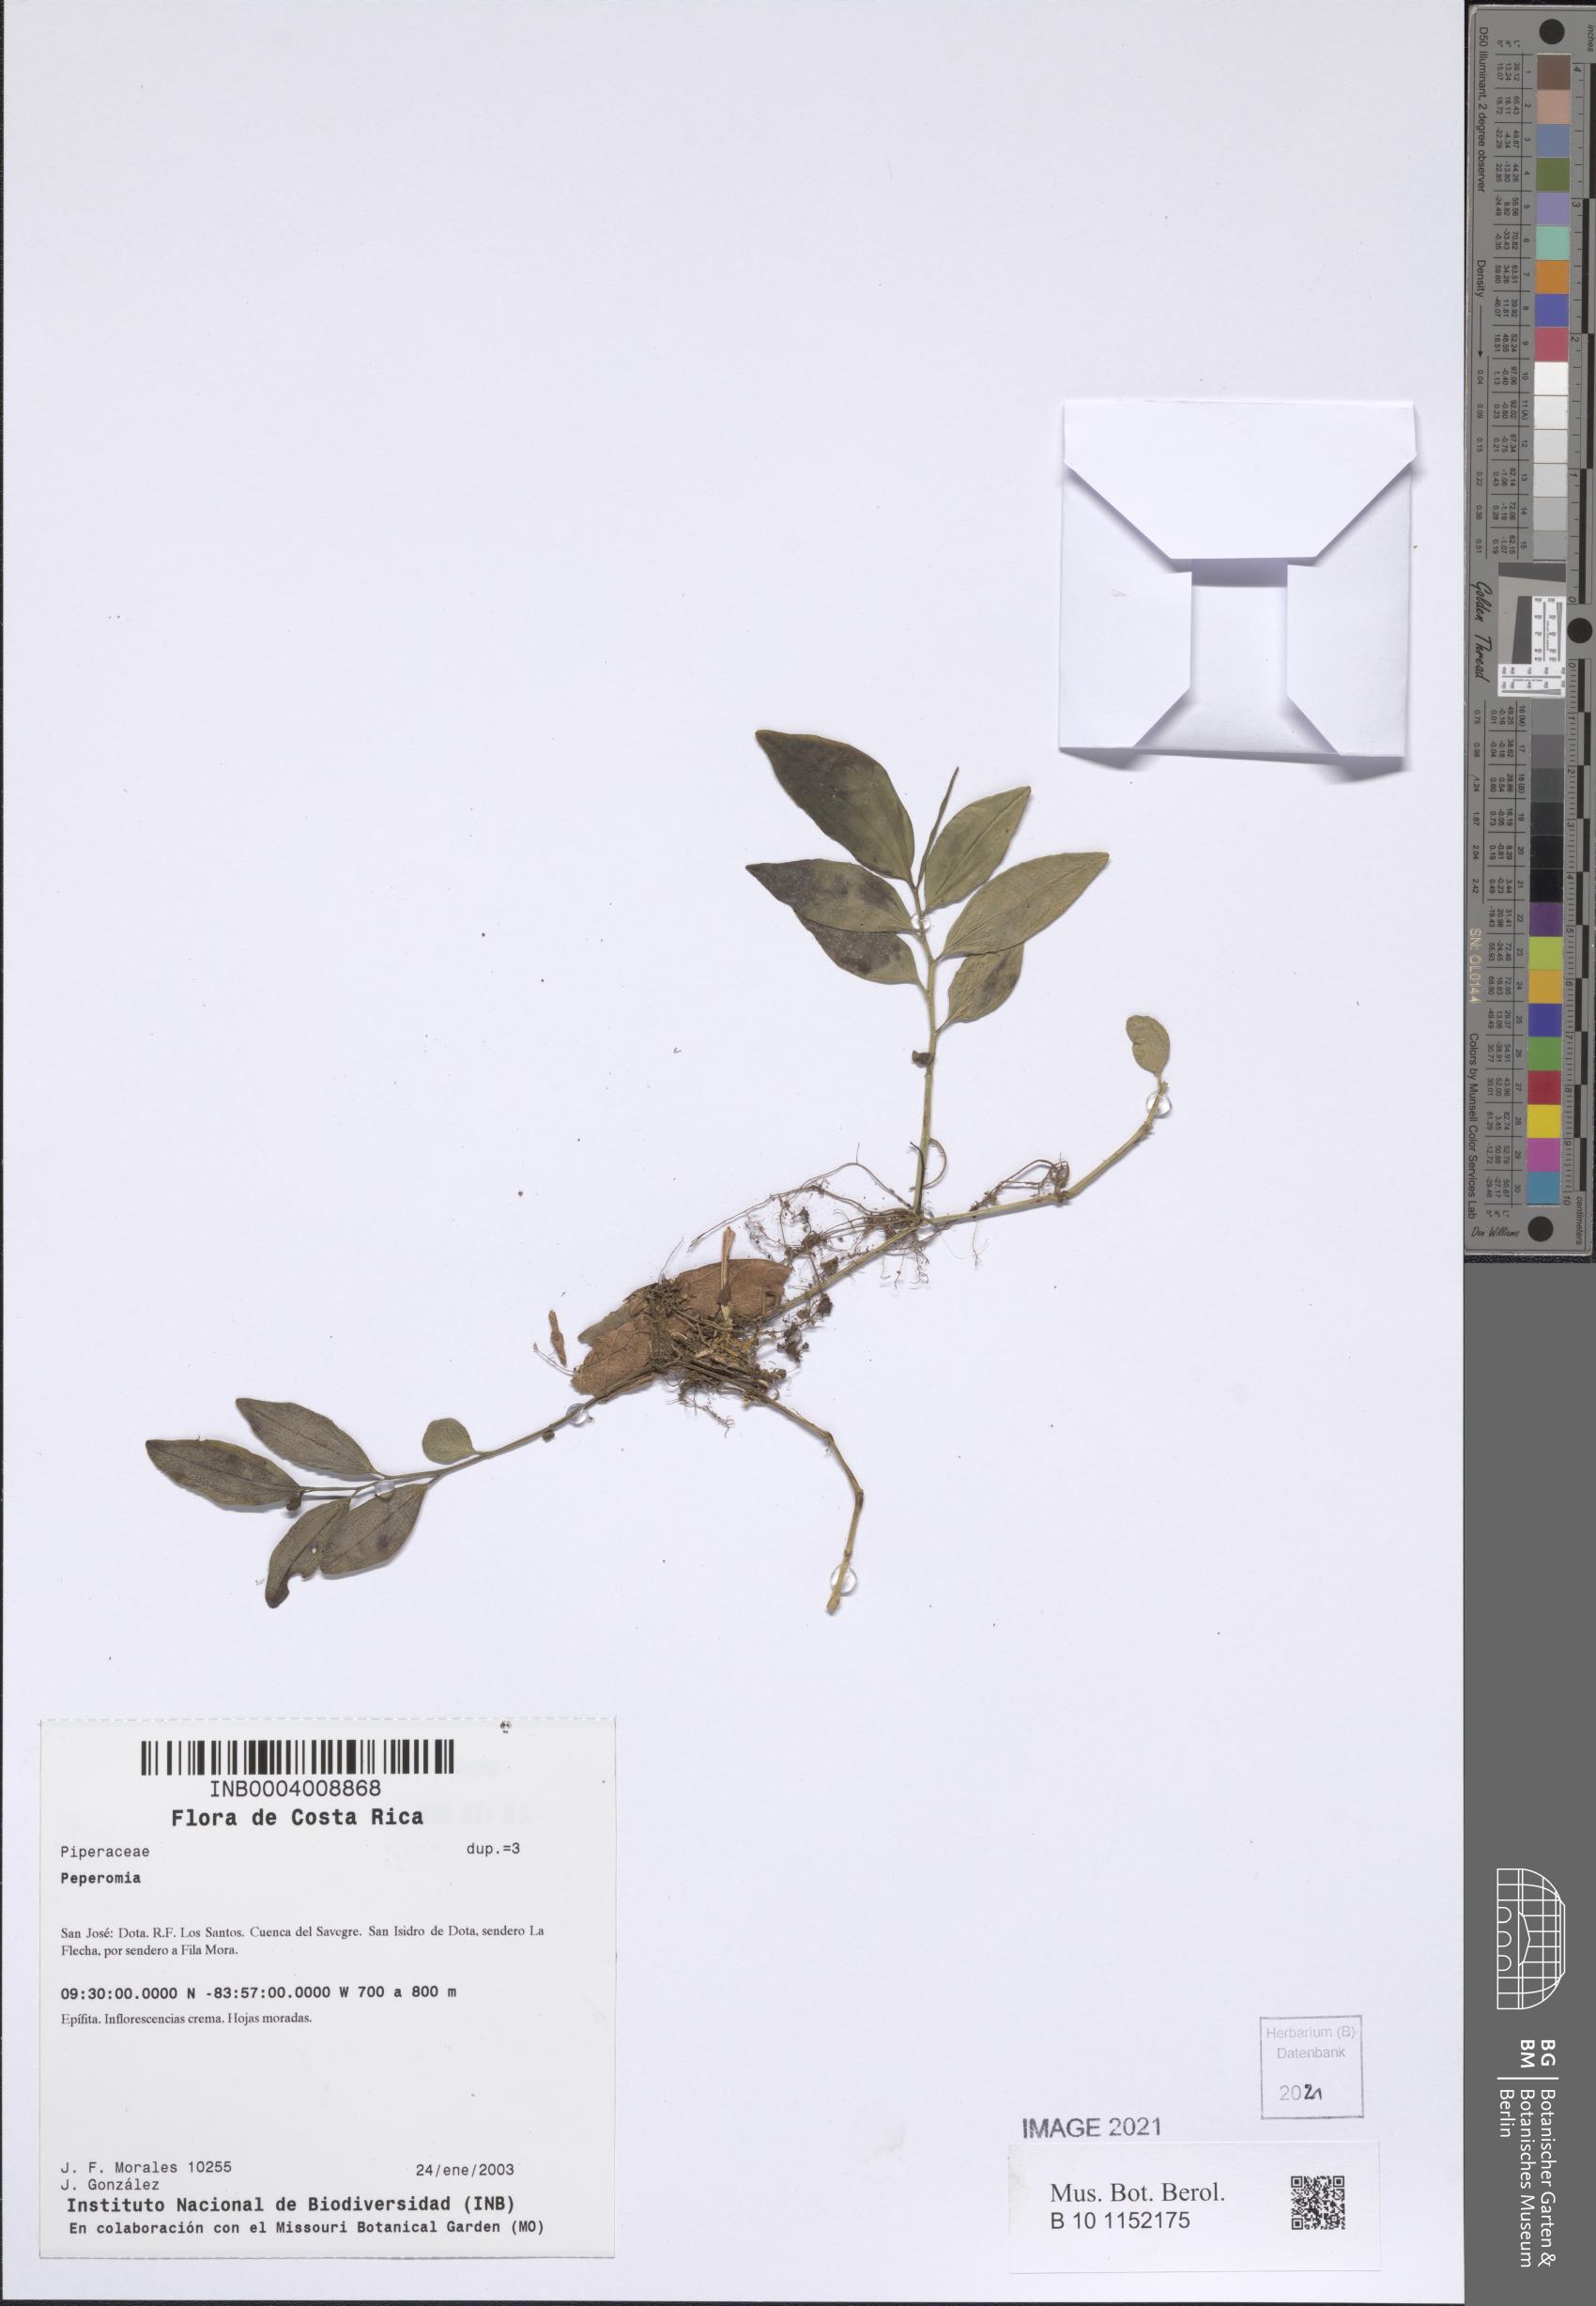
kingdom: Plantae
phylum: Tracheophyta
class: Magnoliopsida
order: Piperales
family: Piperaceae
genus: Peperomia
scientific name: Peperomia
